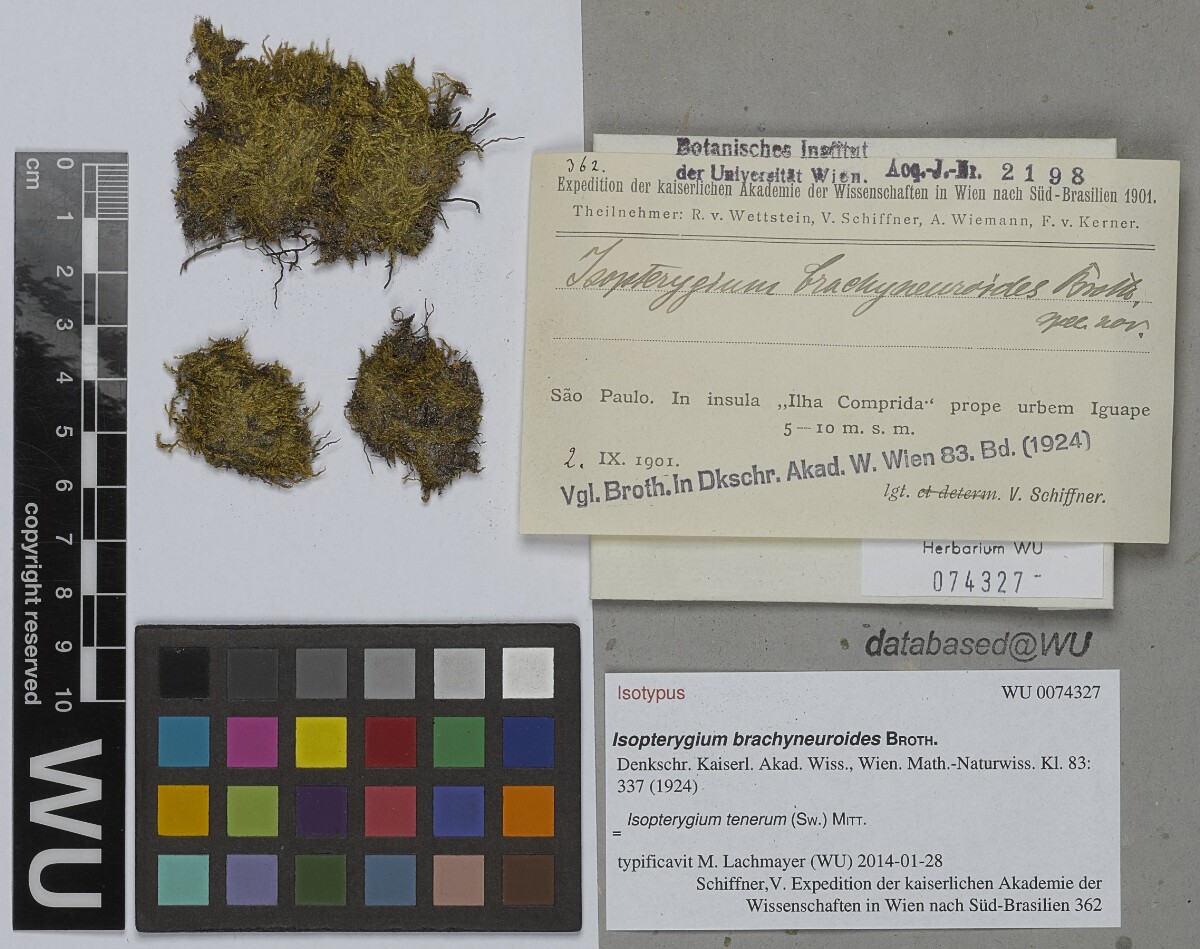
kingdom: Plantae
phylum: Bryophyta
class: Bryopsida
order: Hypnales
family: Pylaisiadelphaceae
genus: Isopterygium
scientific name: Isopterygium tenerum
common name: Isopterygium moss
